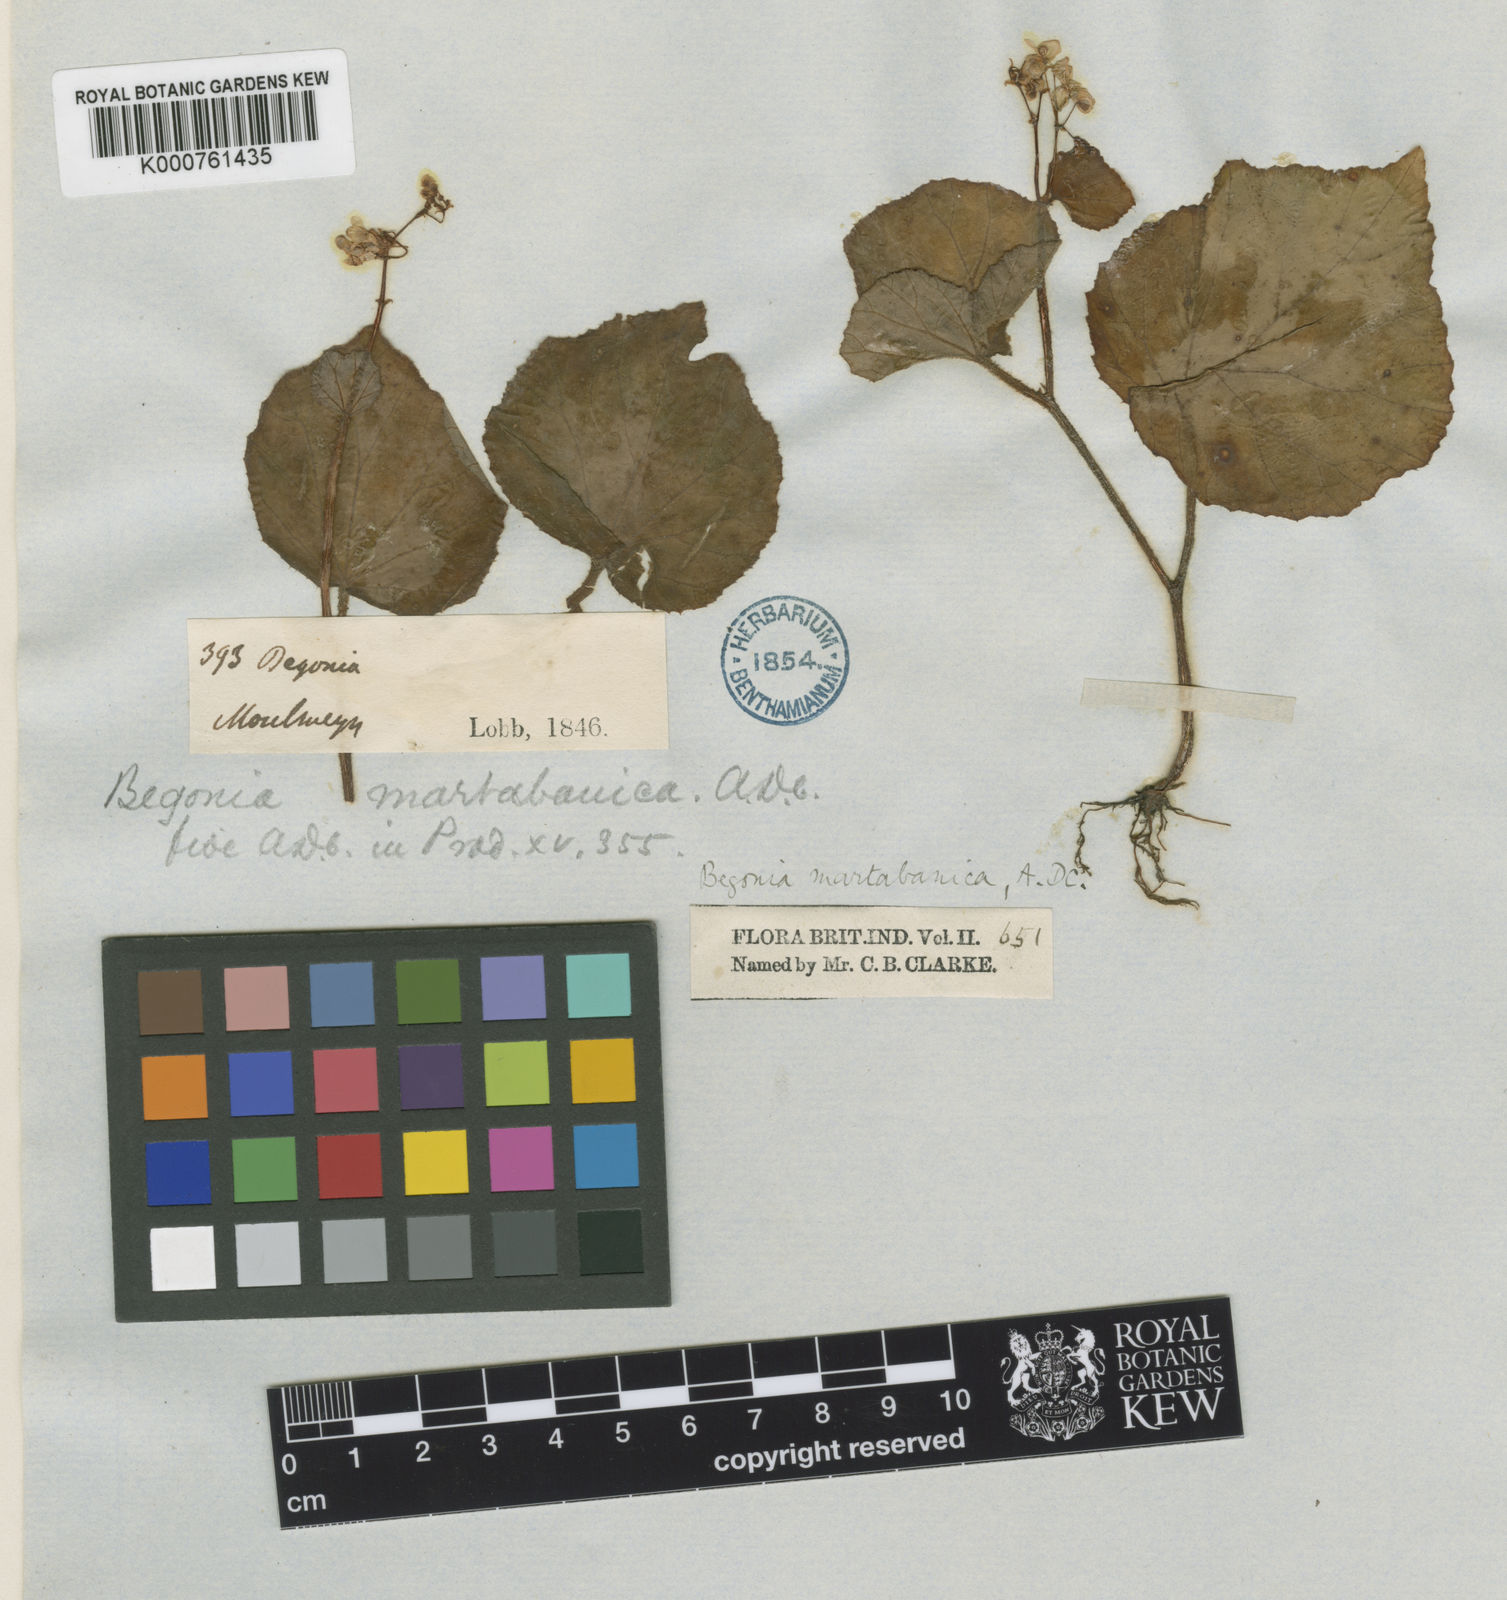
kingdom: Plantae
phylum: Tracheophyta
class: Magnoliopsida
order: Cucurbitales
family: Begoniaceae
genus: Begonia
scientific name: Begonia martabanica
